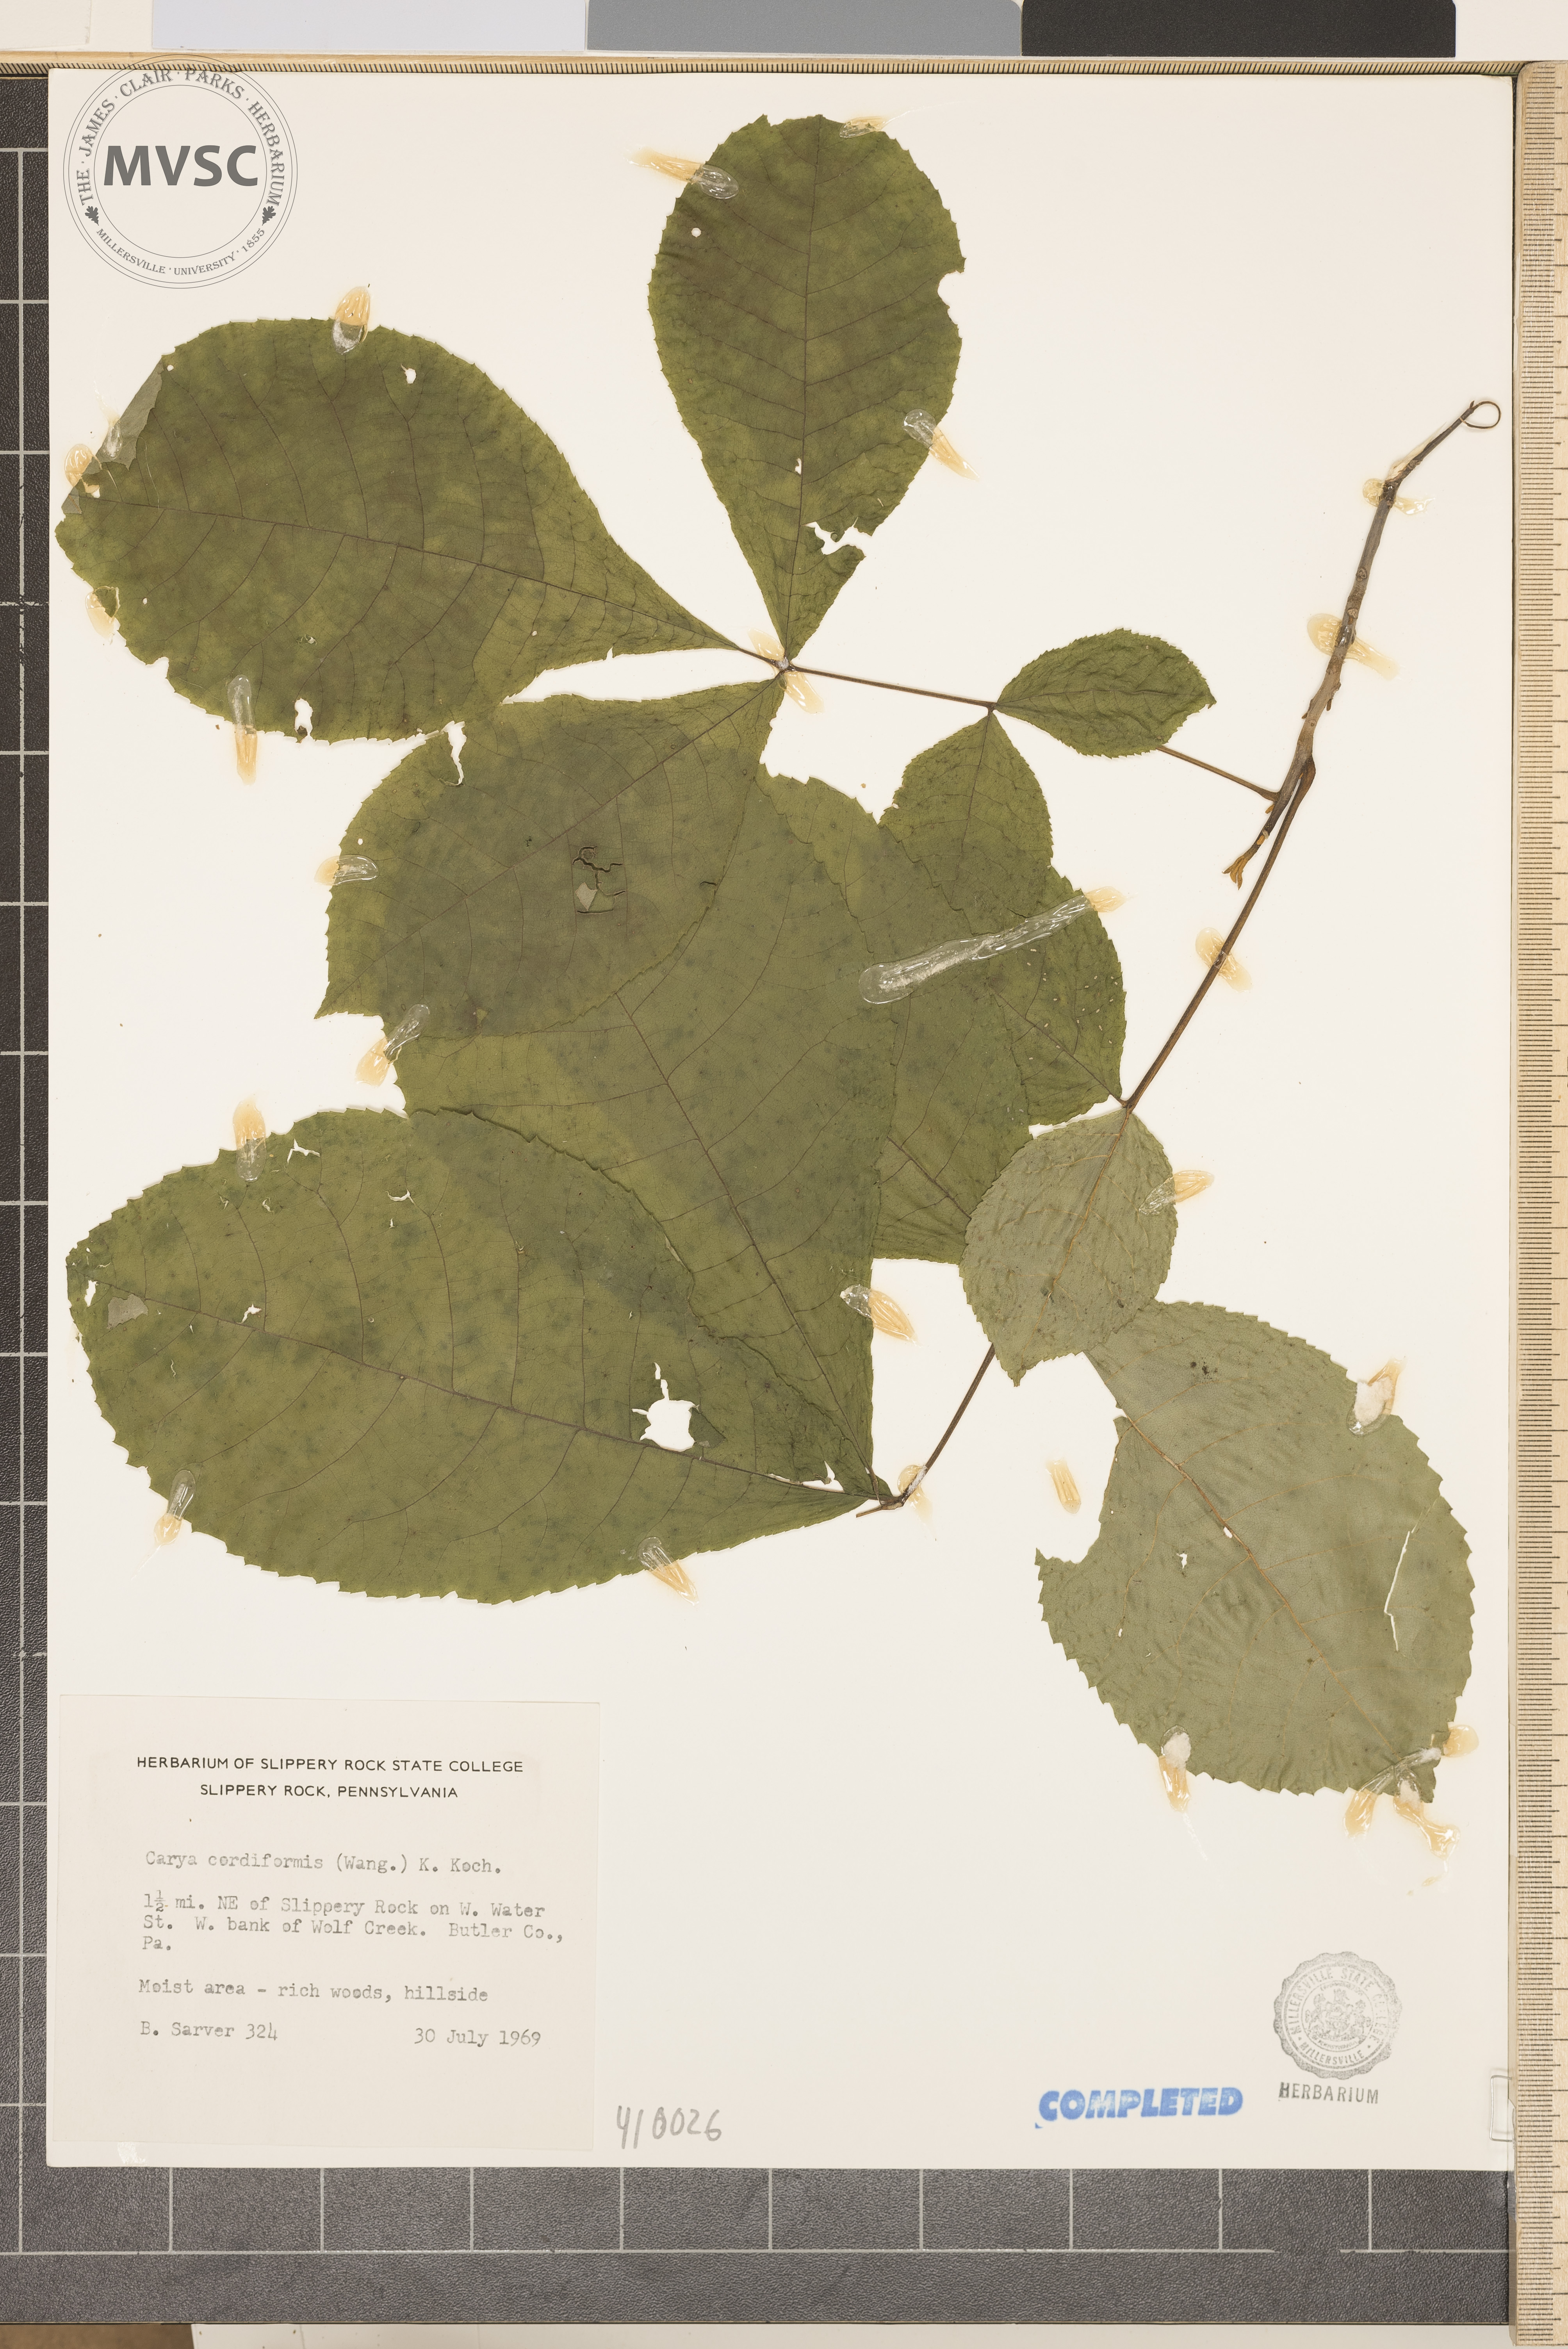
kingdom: Plantae
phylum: Tracheophyta
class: Magnoliopsida
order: Fagales
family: Juglandaceae
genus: Carya
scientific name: Carya cordiformis
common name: Bitternut hickory
